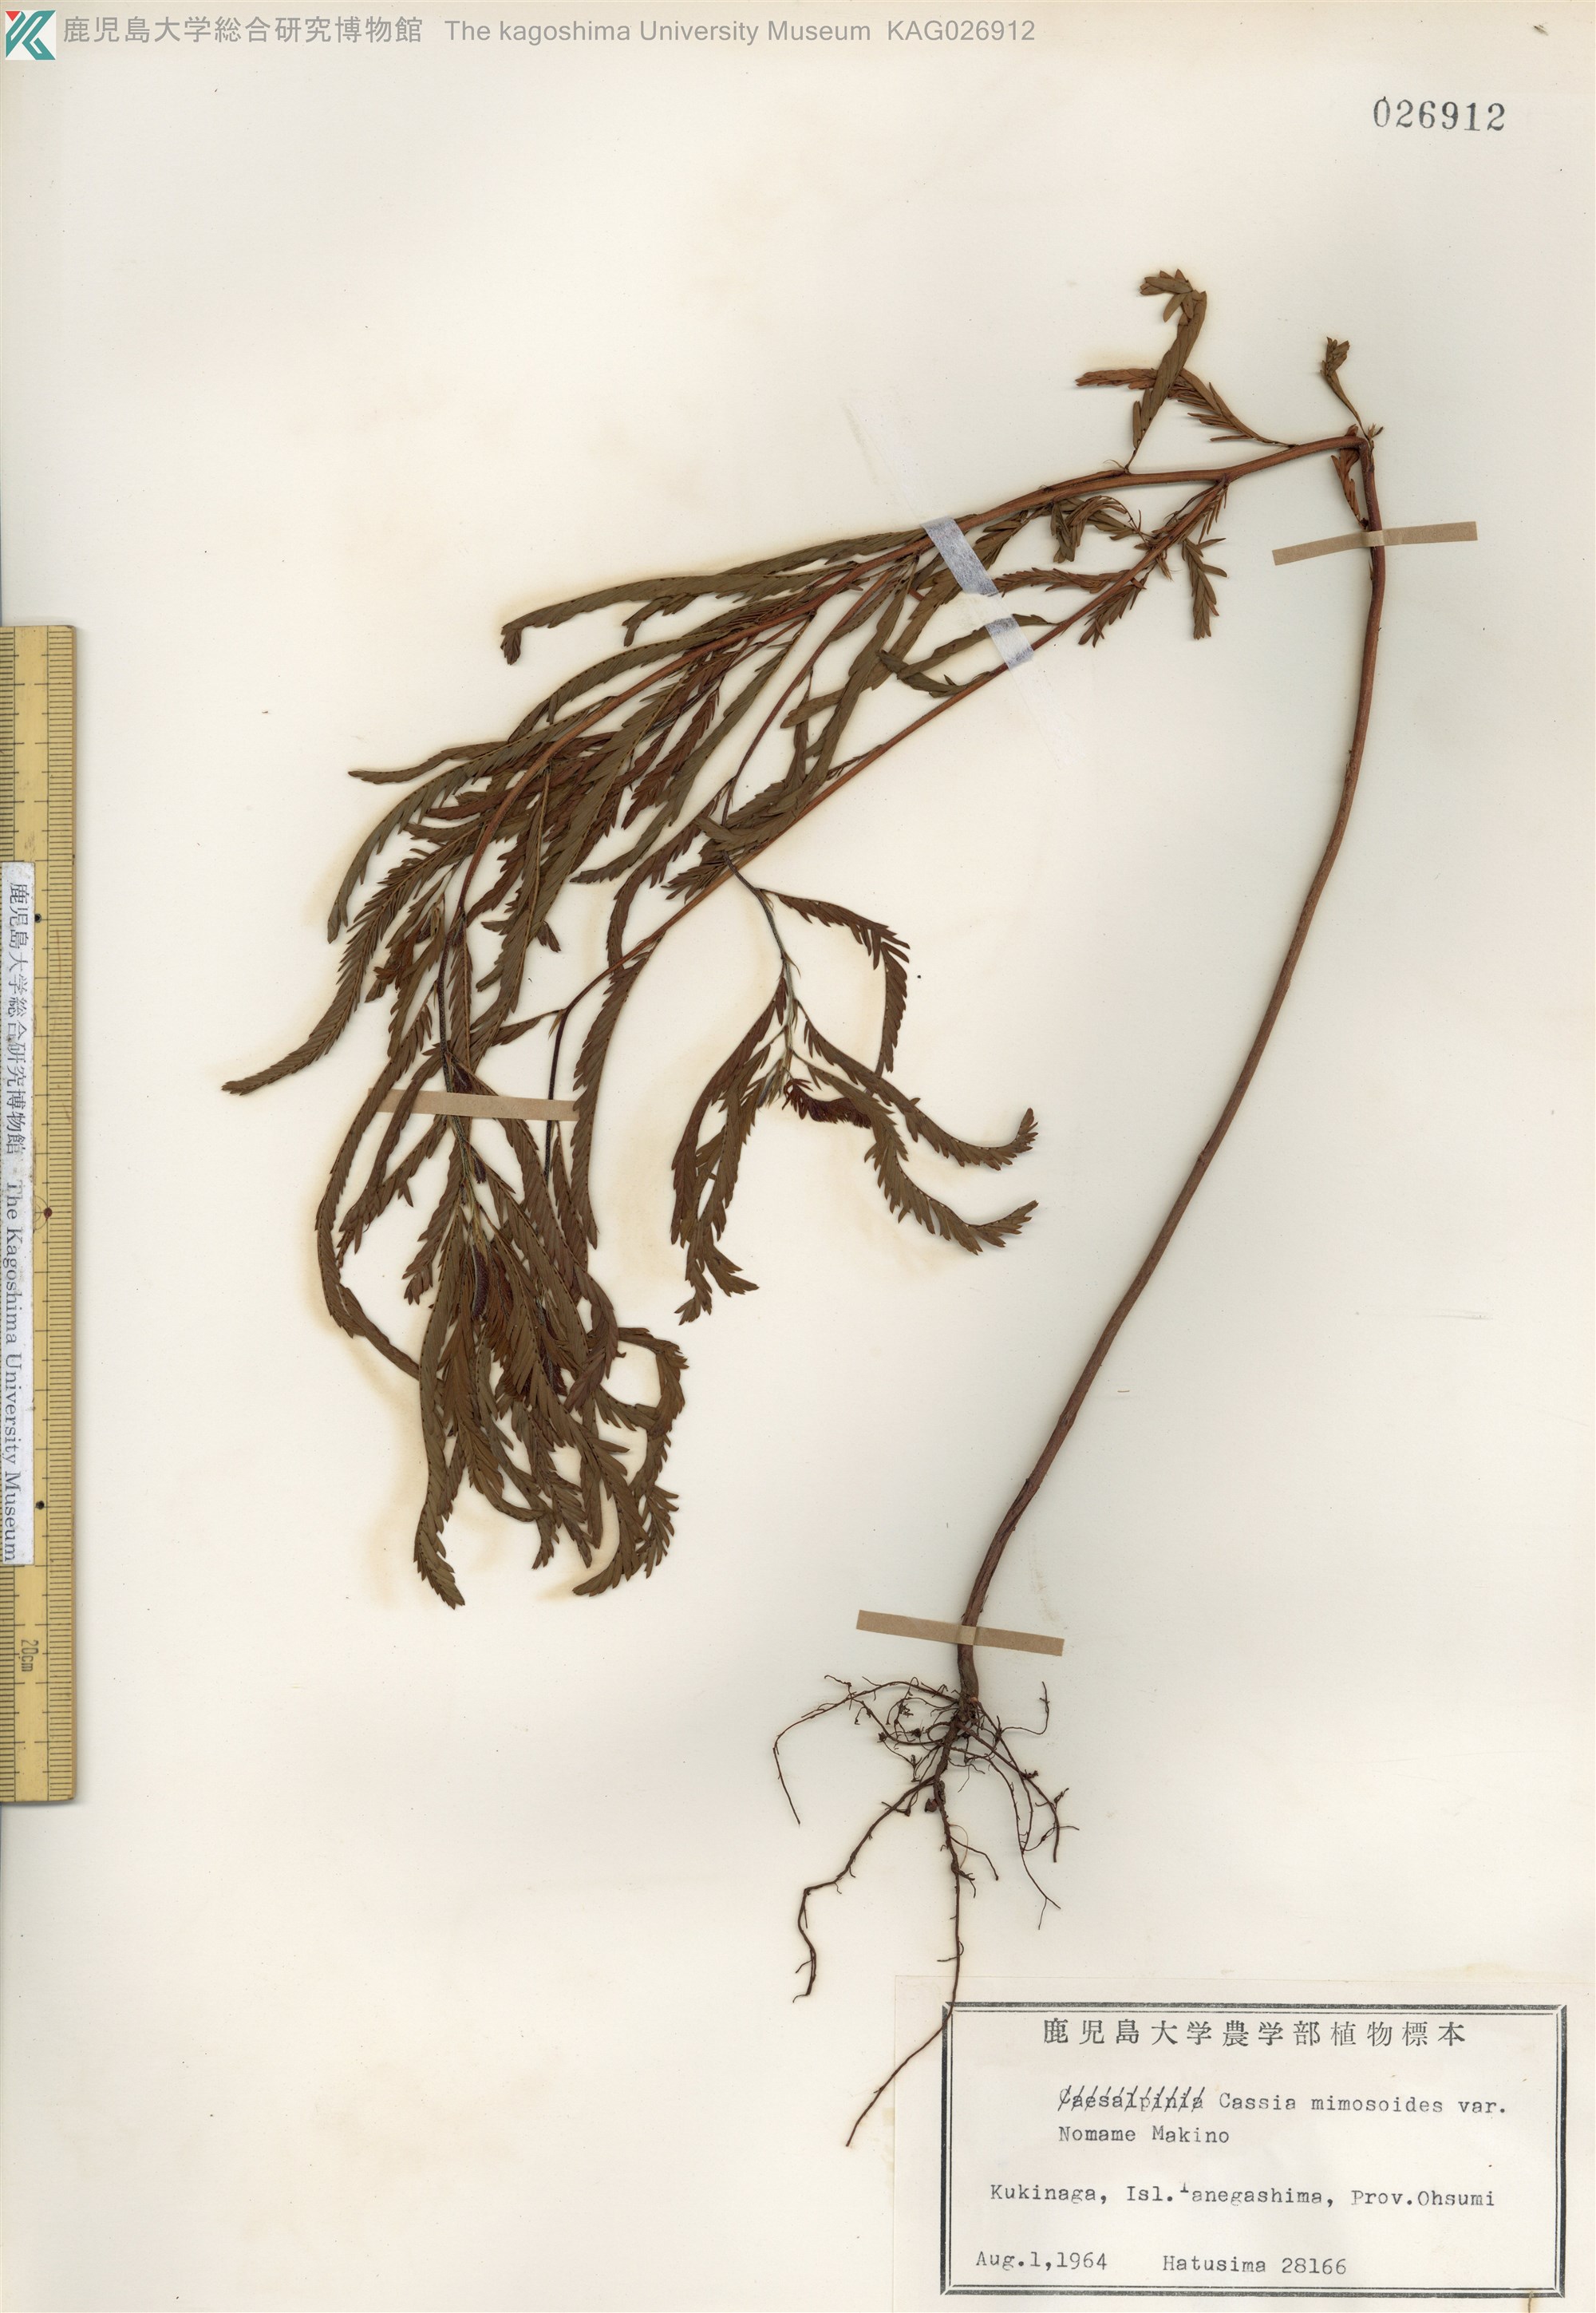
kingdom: Plantae
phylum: Tracheophyta
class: Magnoliopsida
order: Fabales
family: Fabaceae
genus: Chamaecrista
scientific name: Chamaecrista nomame
